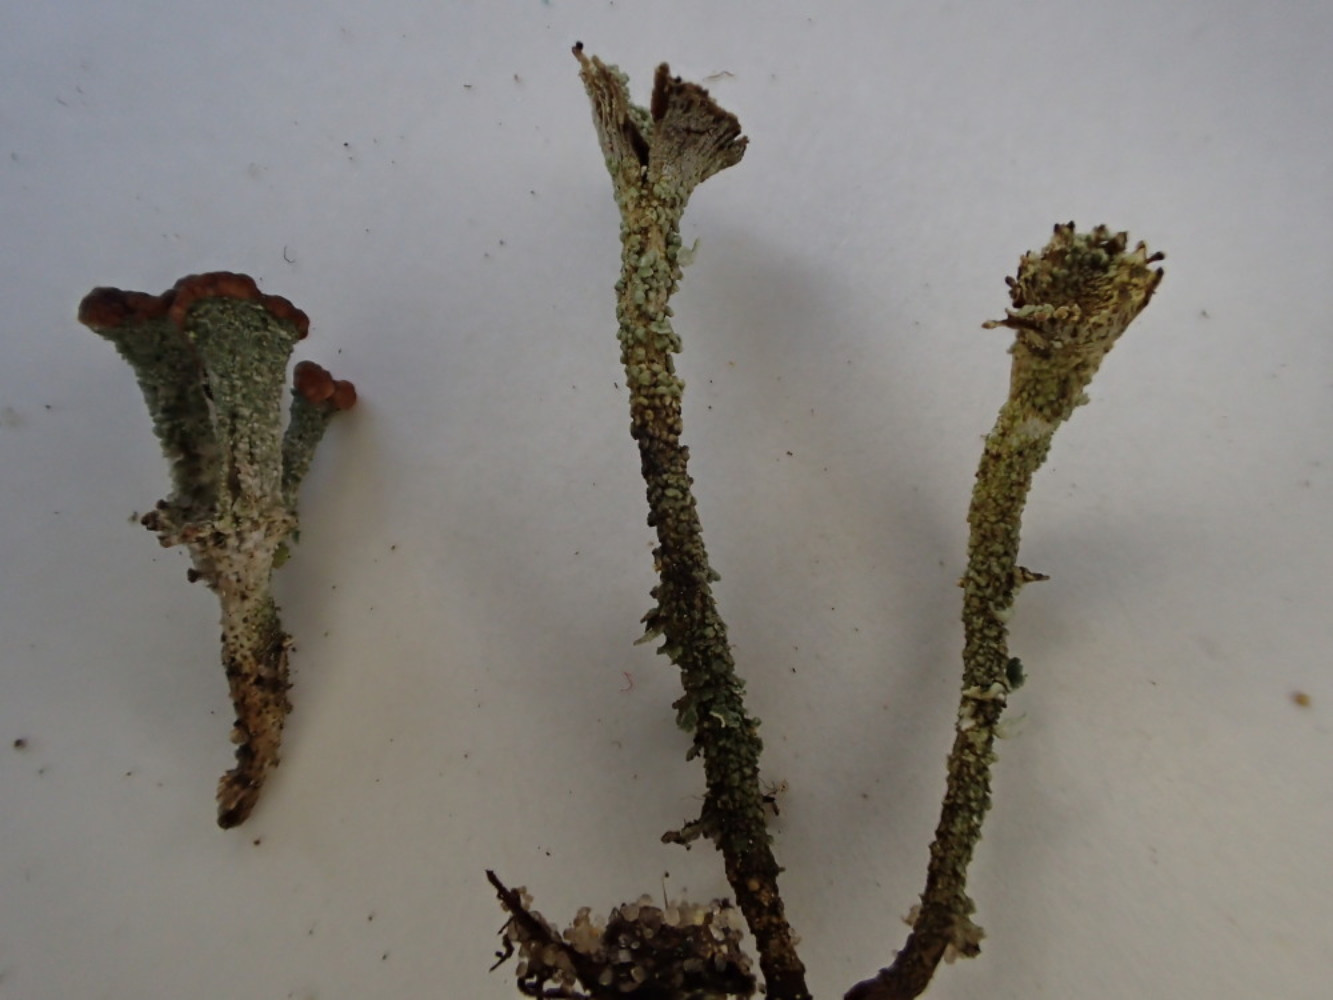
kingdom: Fungi
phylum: Ascomycota
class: Lecanoromycetes
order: Lecanorales
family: Cladoniaceae
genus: Cladonia
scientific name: Cladonia merochlorophaea
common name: mørk bægerlav
